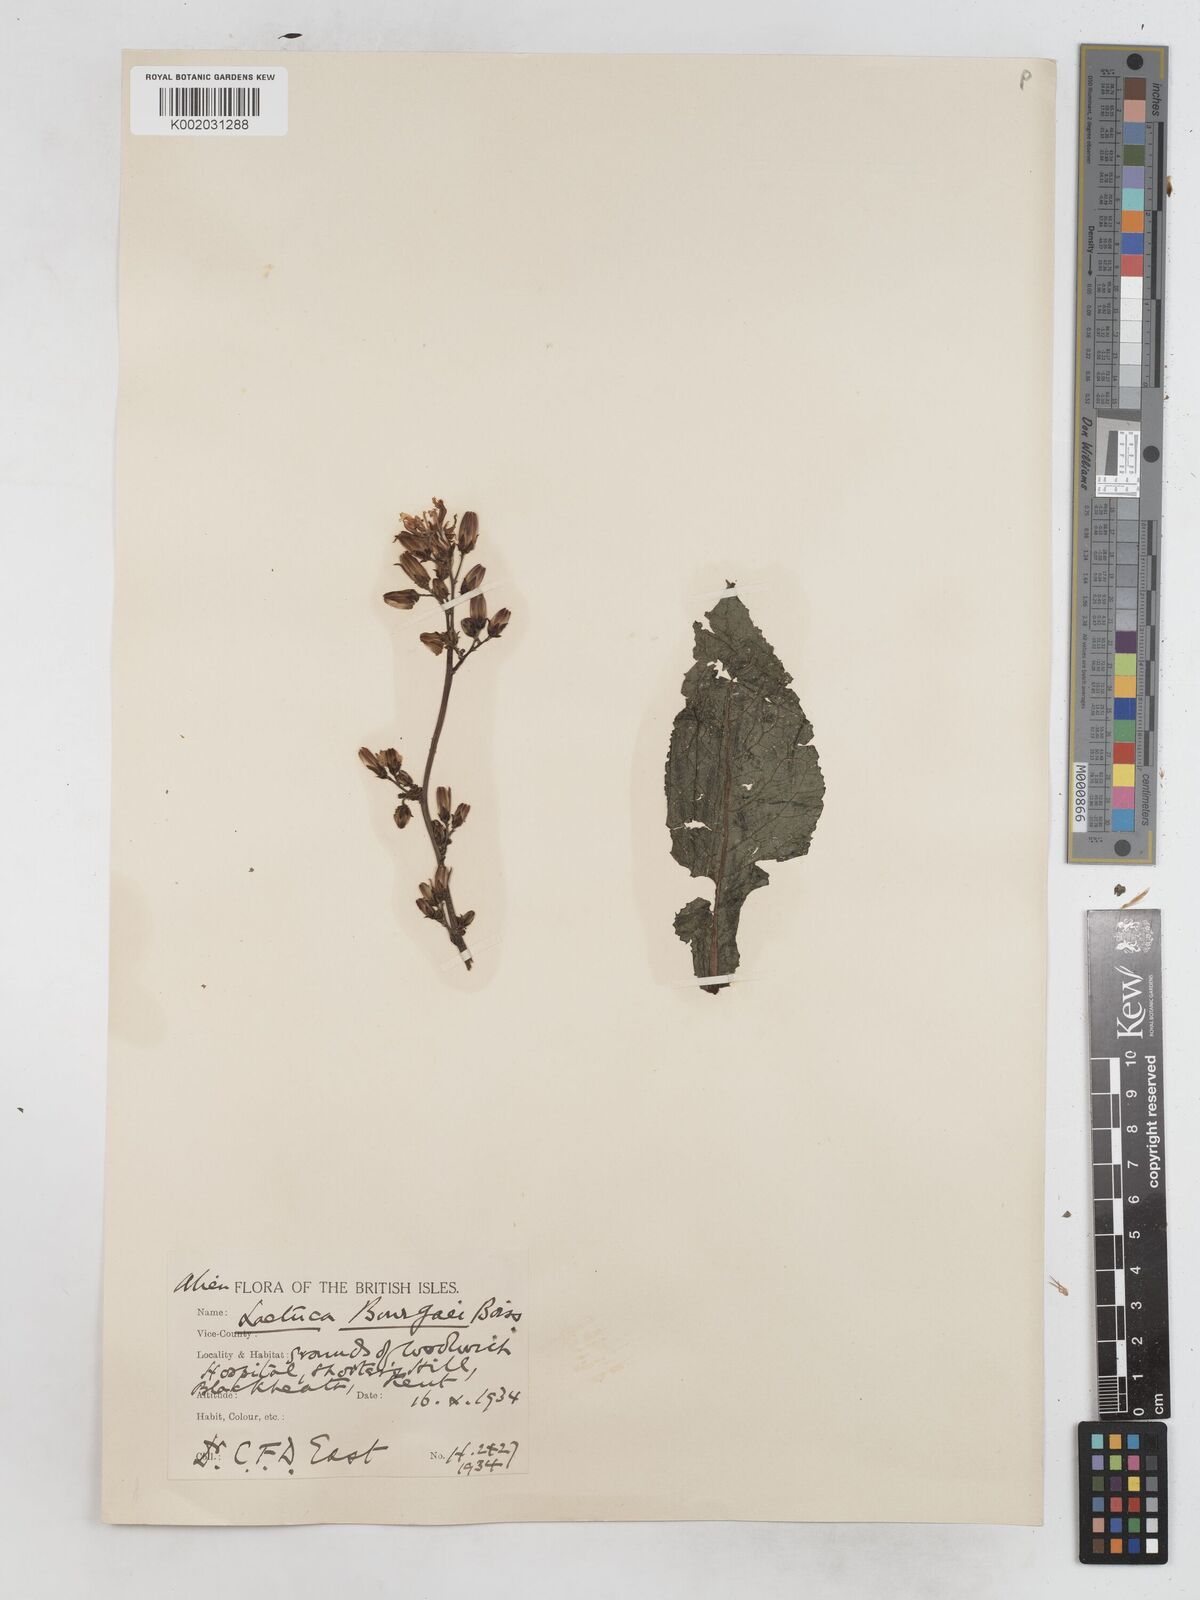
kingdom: Plantae
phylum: Tracheophyta
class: Magnoliopsida
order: Asterales
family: Asteraceae
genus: Lactuca
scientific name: Lactuca bourgaei
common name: Pontic blue-sow-thistle
